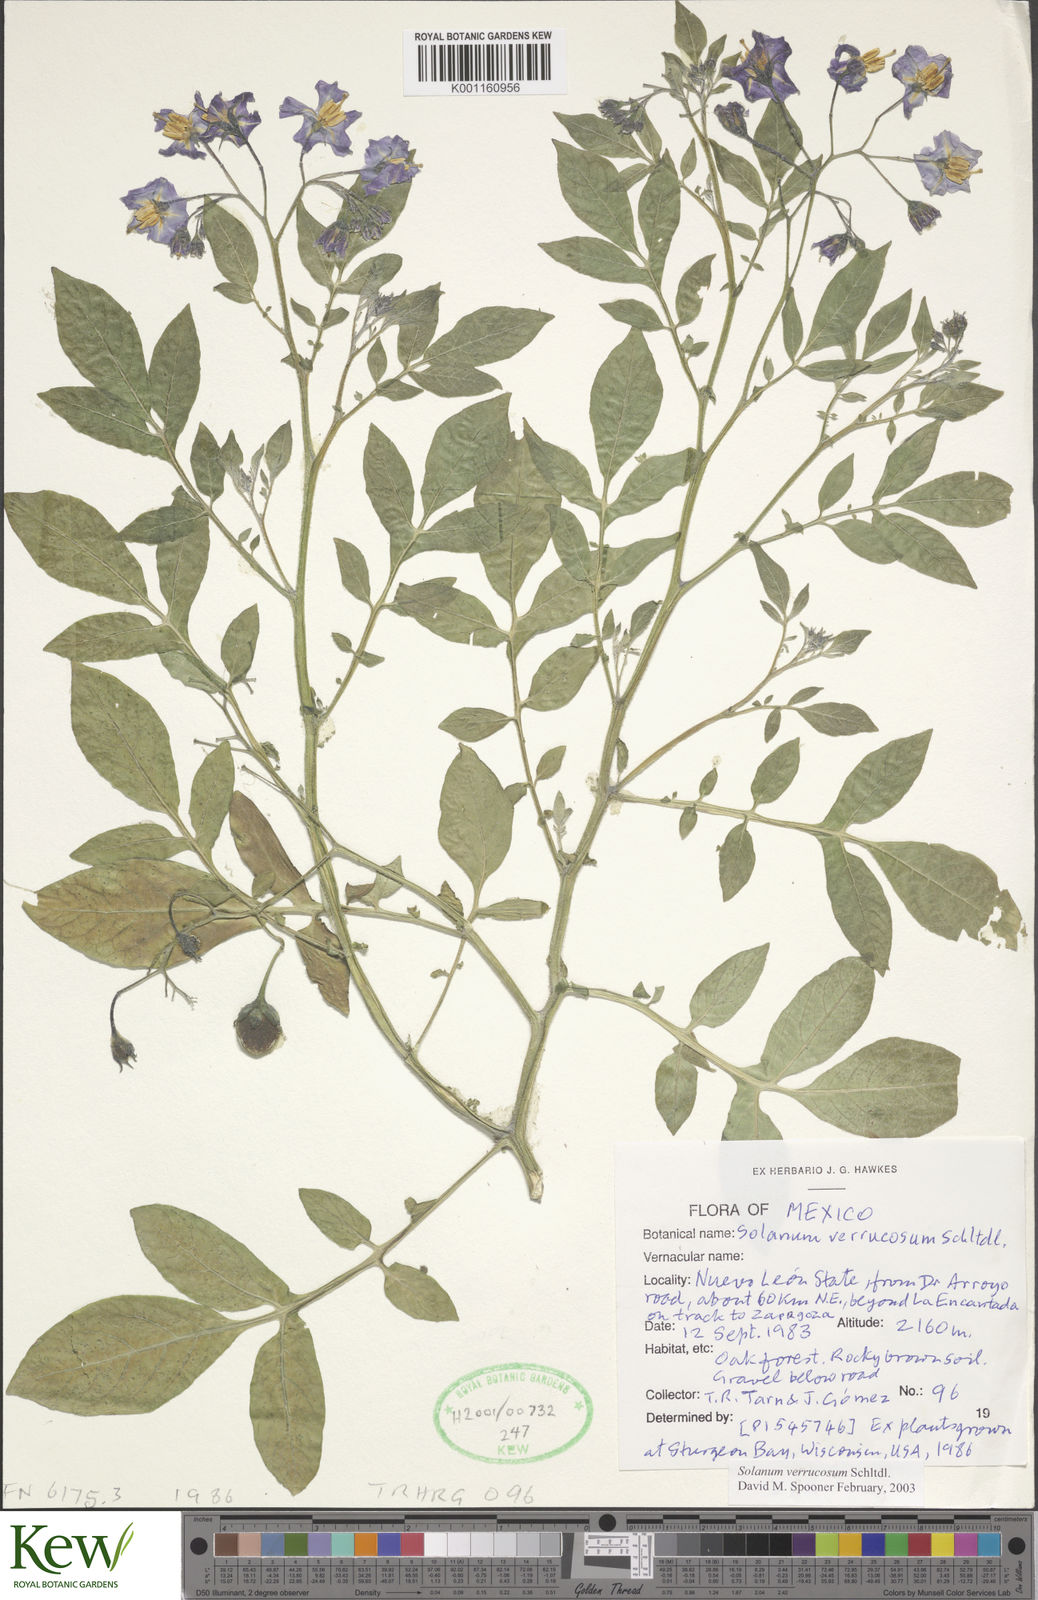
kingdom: Plantae
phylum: Tracheophyta
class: Magnoliopsida
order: Solanales
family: Solanaceae
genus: Solanum
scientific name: Solanum verrucosum
